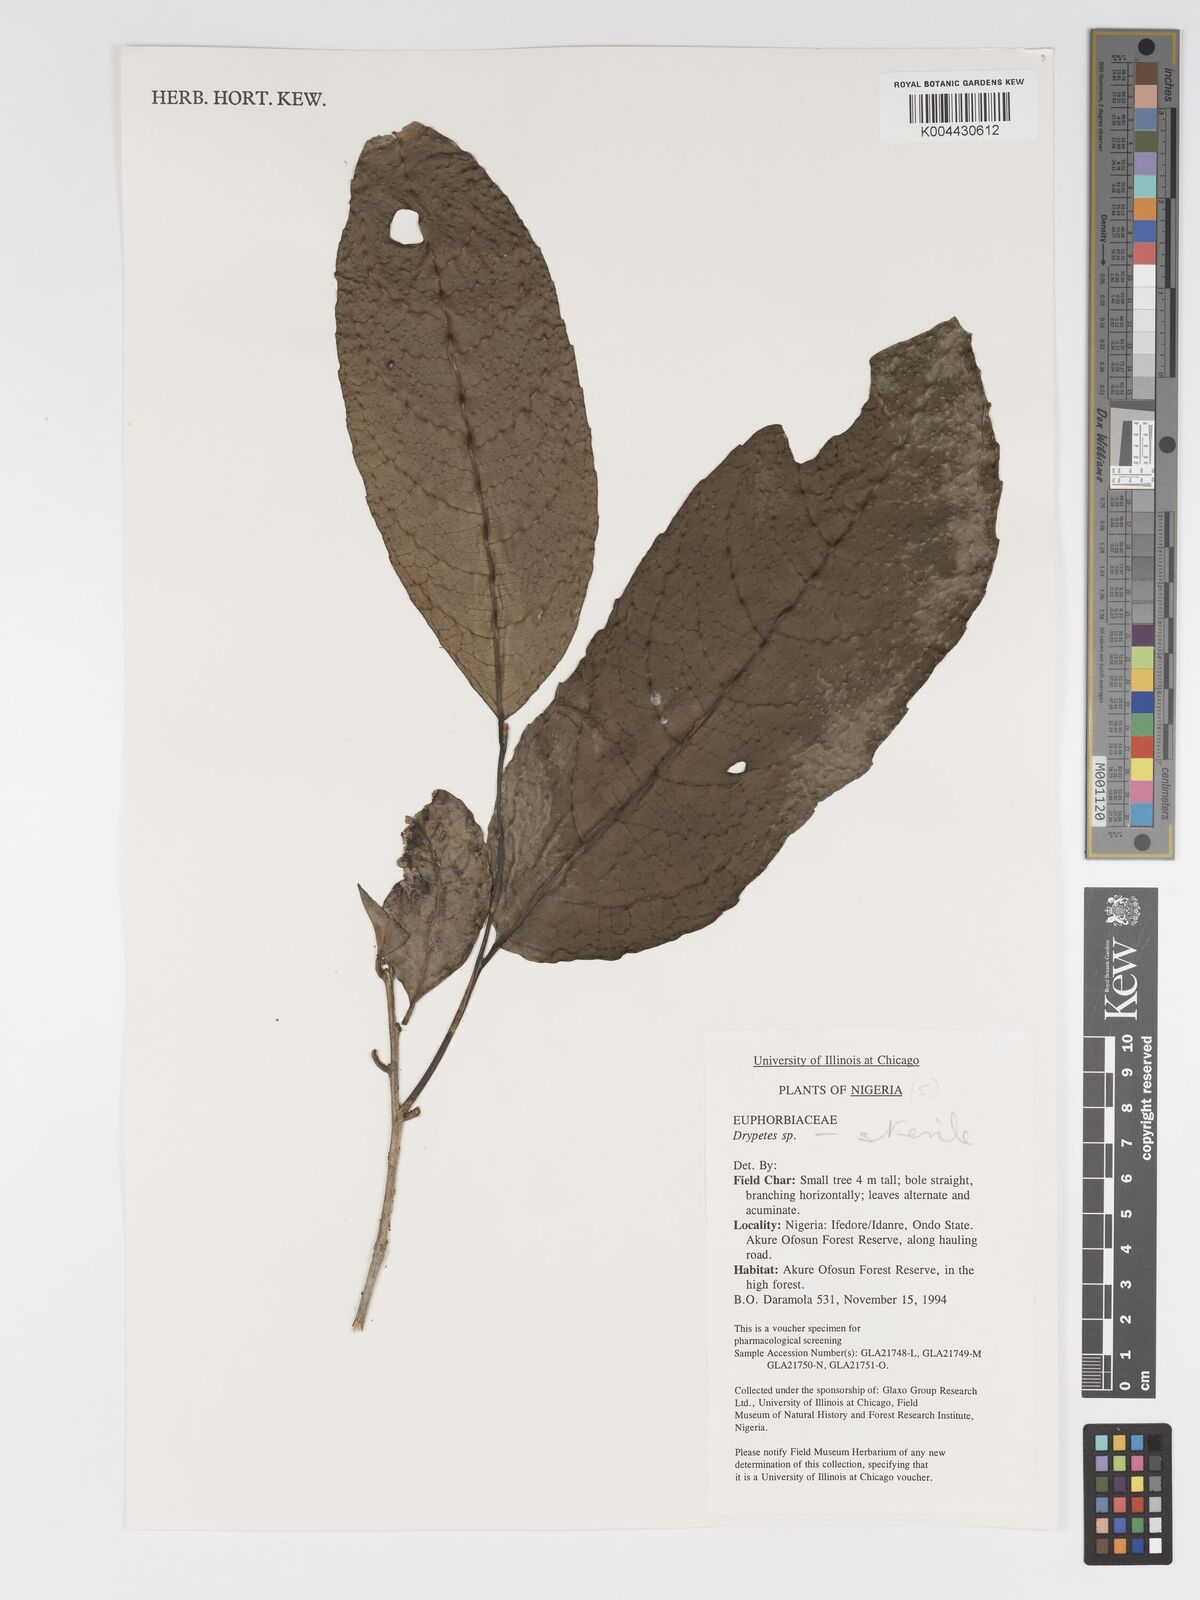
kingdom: Plantae
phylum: Tracheophyta
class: Magnoliopsida
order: Malpighiales
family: Putranjivaceae
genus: Drypetes
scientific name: Drypetes
